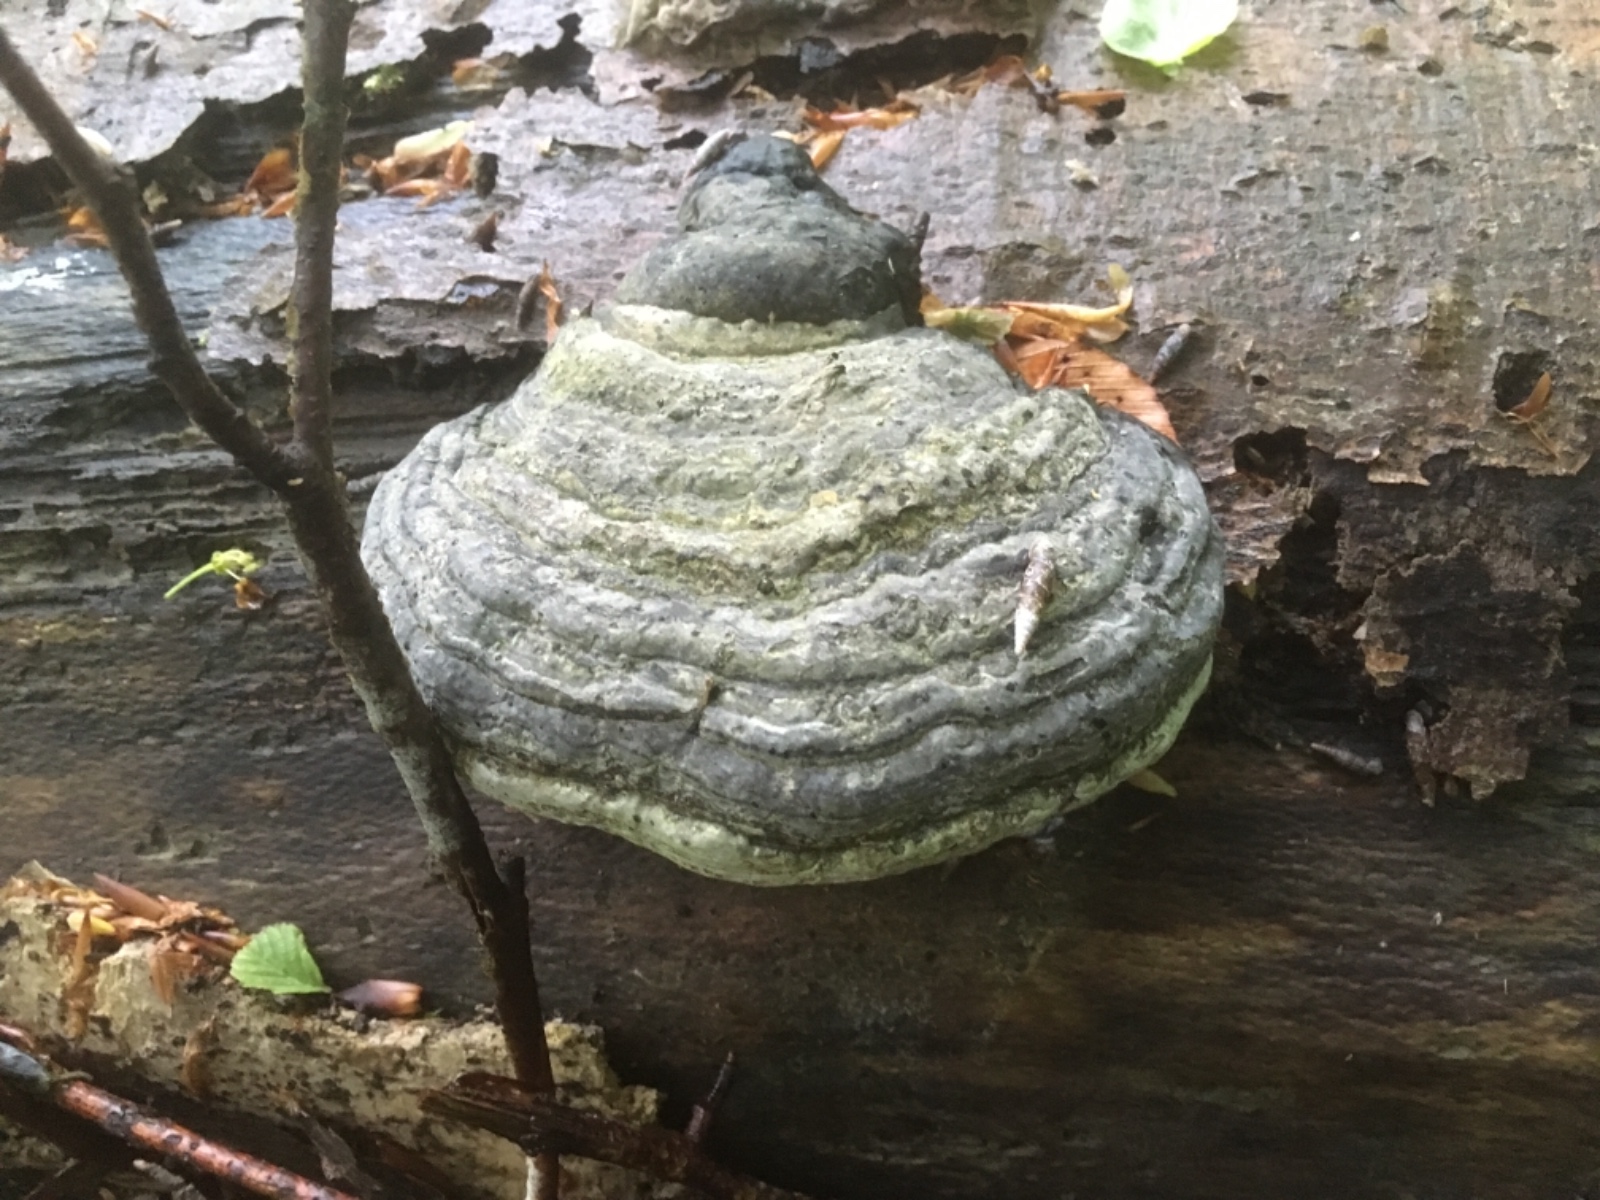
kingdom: Fungi
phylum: Basidiomycota
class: Agaricomycetes
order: Polyporales
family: Polyporaceae
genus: Fomes
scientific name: Fomes fomentarius
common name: tøndersvamp
